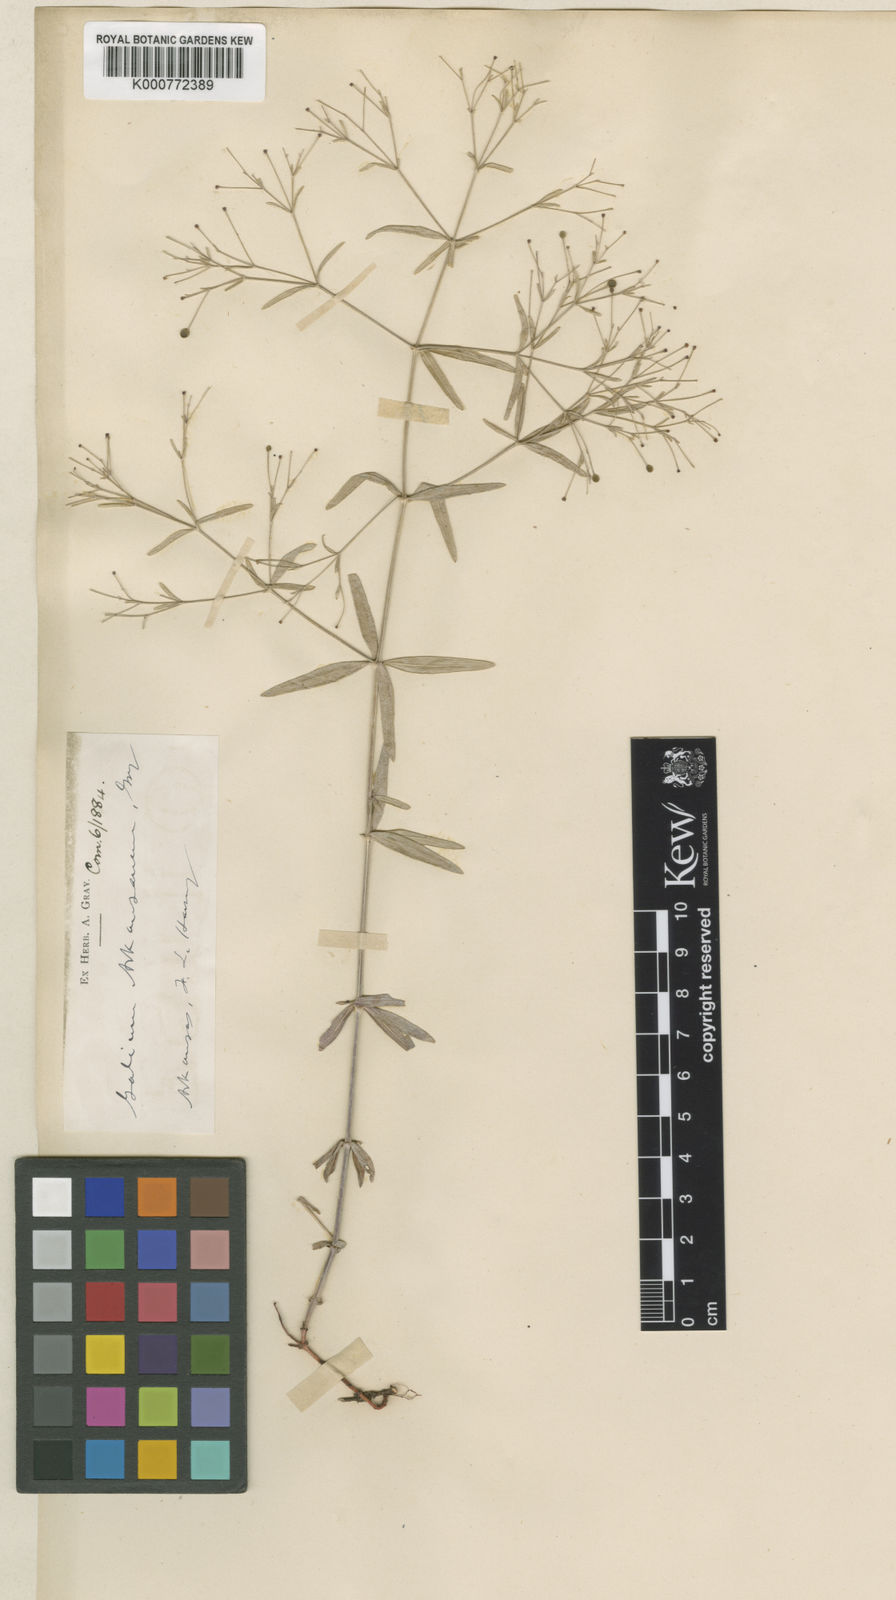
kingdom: Plantae
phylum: Tracheophyta
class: Magnoliopsida
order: Gentianales
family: Rubiaceae
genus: Galium
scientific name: Galium arkansanum
